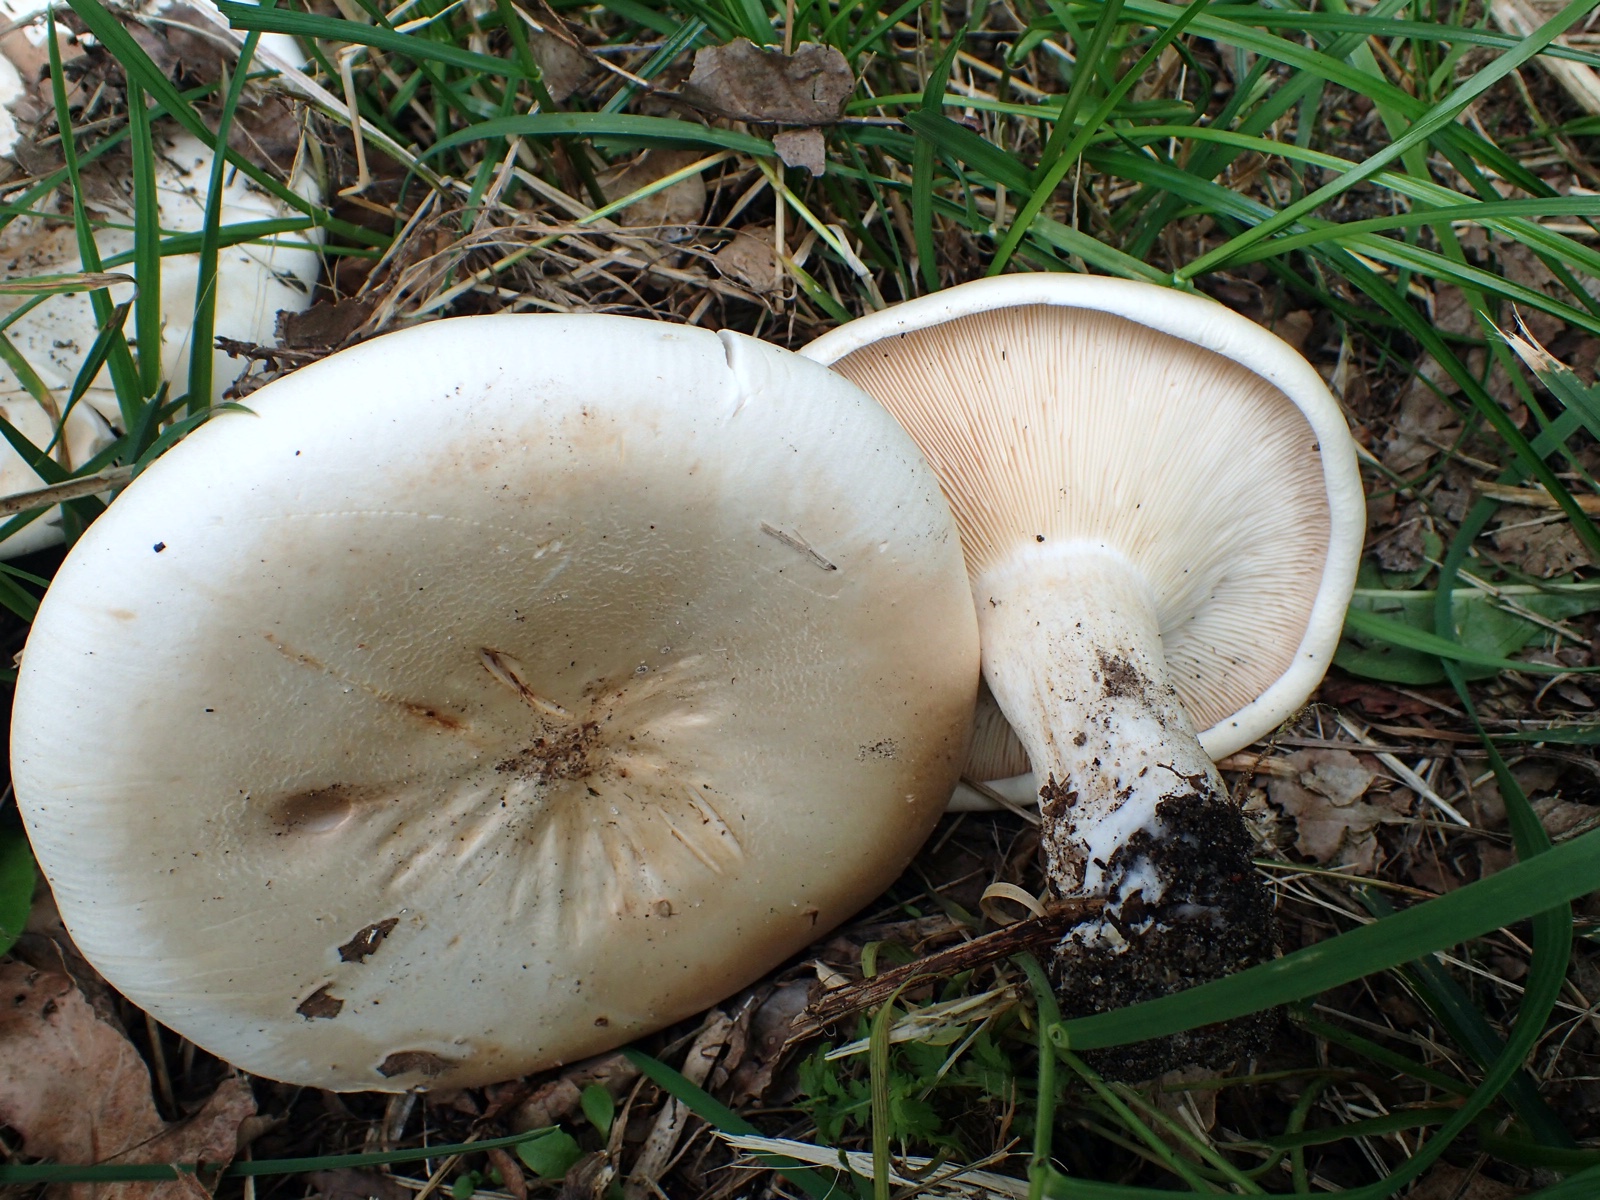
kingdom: Fungi
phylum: Basidiomycota
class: Agaricomycetes
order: Agaricales
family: Tricholomataceae
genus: Aspropaxillus
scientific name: Aspropaxillus giganteus
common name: kæmpe-tragtridderhat
